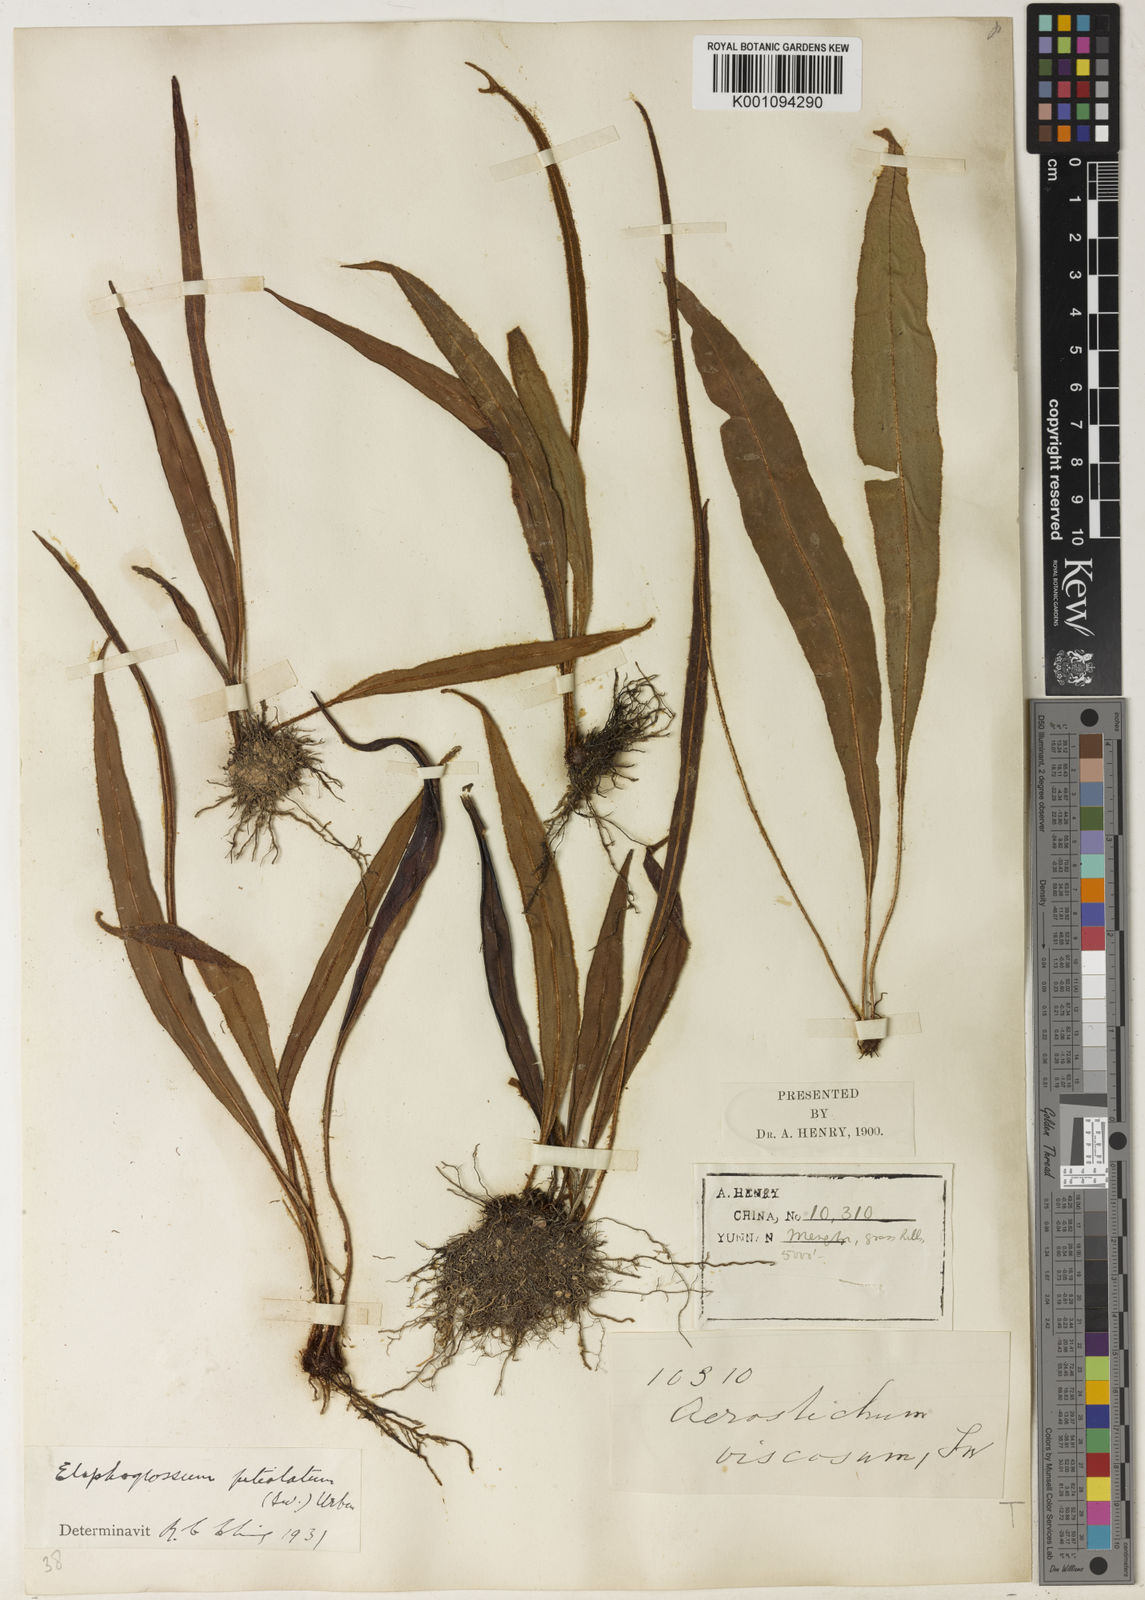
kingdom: Plantae
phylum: Tracheophyta
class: Polypodiopsida
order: Polypodiales
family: Dryopteridaceae
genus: Elaphoglossum
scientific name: Elaphoglossum stelligerum
